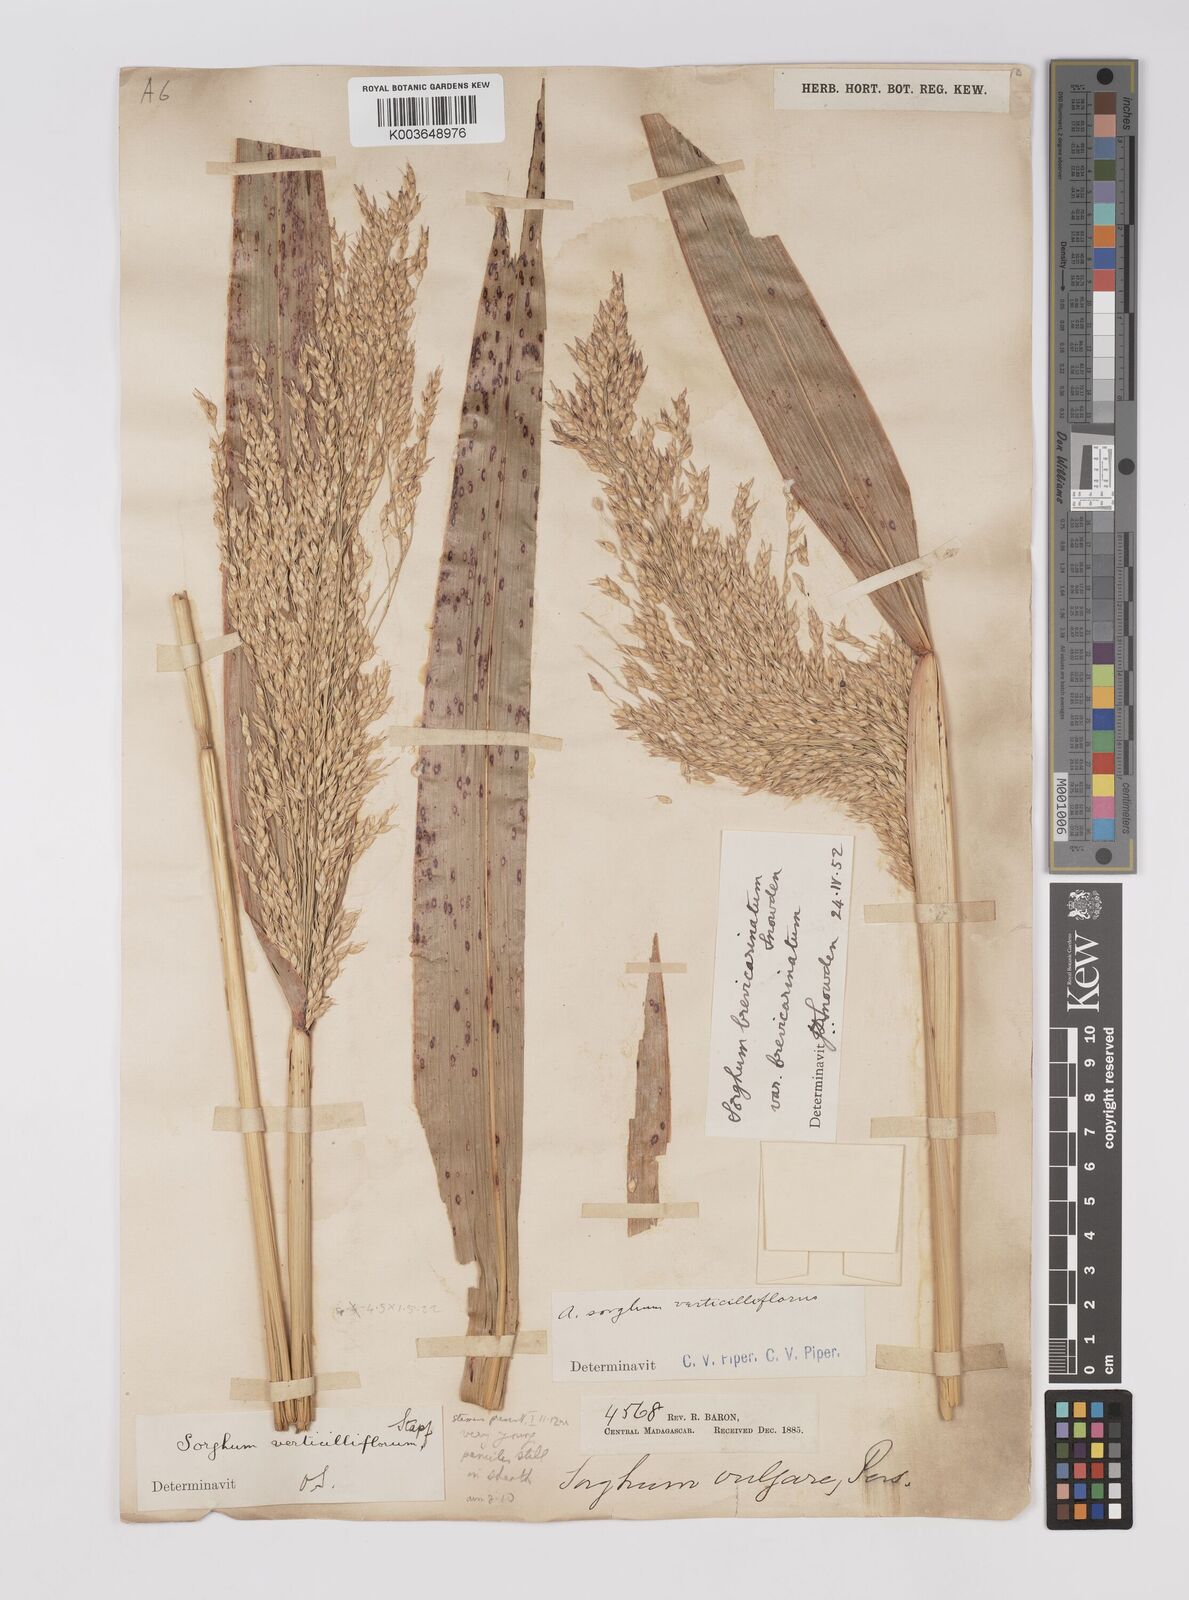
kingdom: Plantae
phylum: Tracheophyta
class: Liliopsida
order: Poales
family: Poaceae
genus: Sorghum
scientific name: Sorghum arundinaceum
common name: Sorghum
